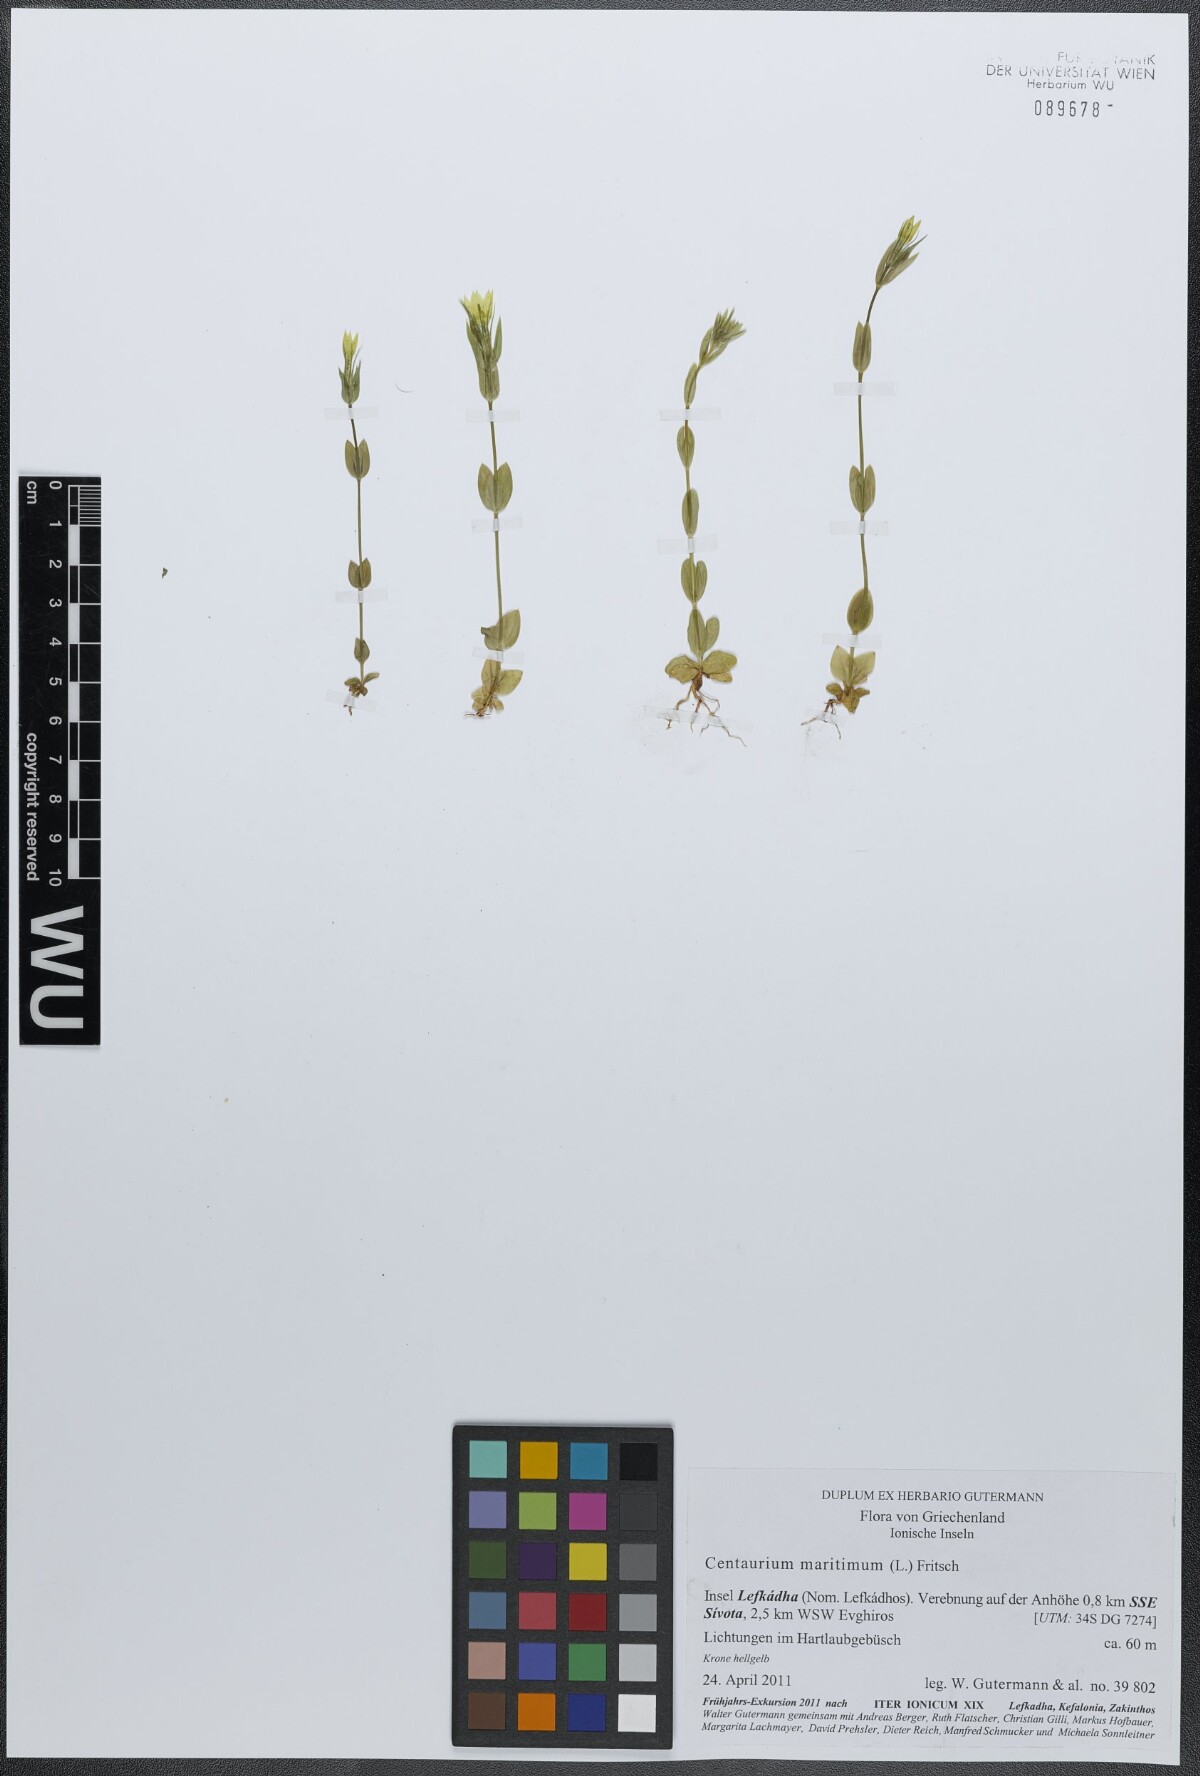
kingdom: Plantae
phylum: Tracheophyta
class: Magnoliopsida
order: Gentianales
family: Gentianaceae
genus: Centaurium
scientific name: Centaurium maritimum
